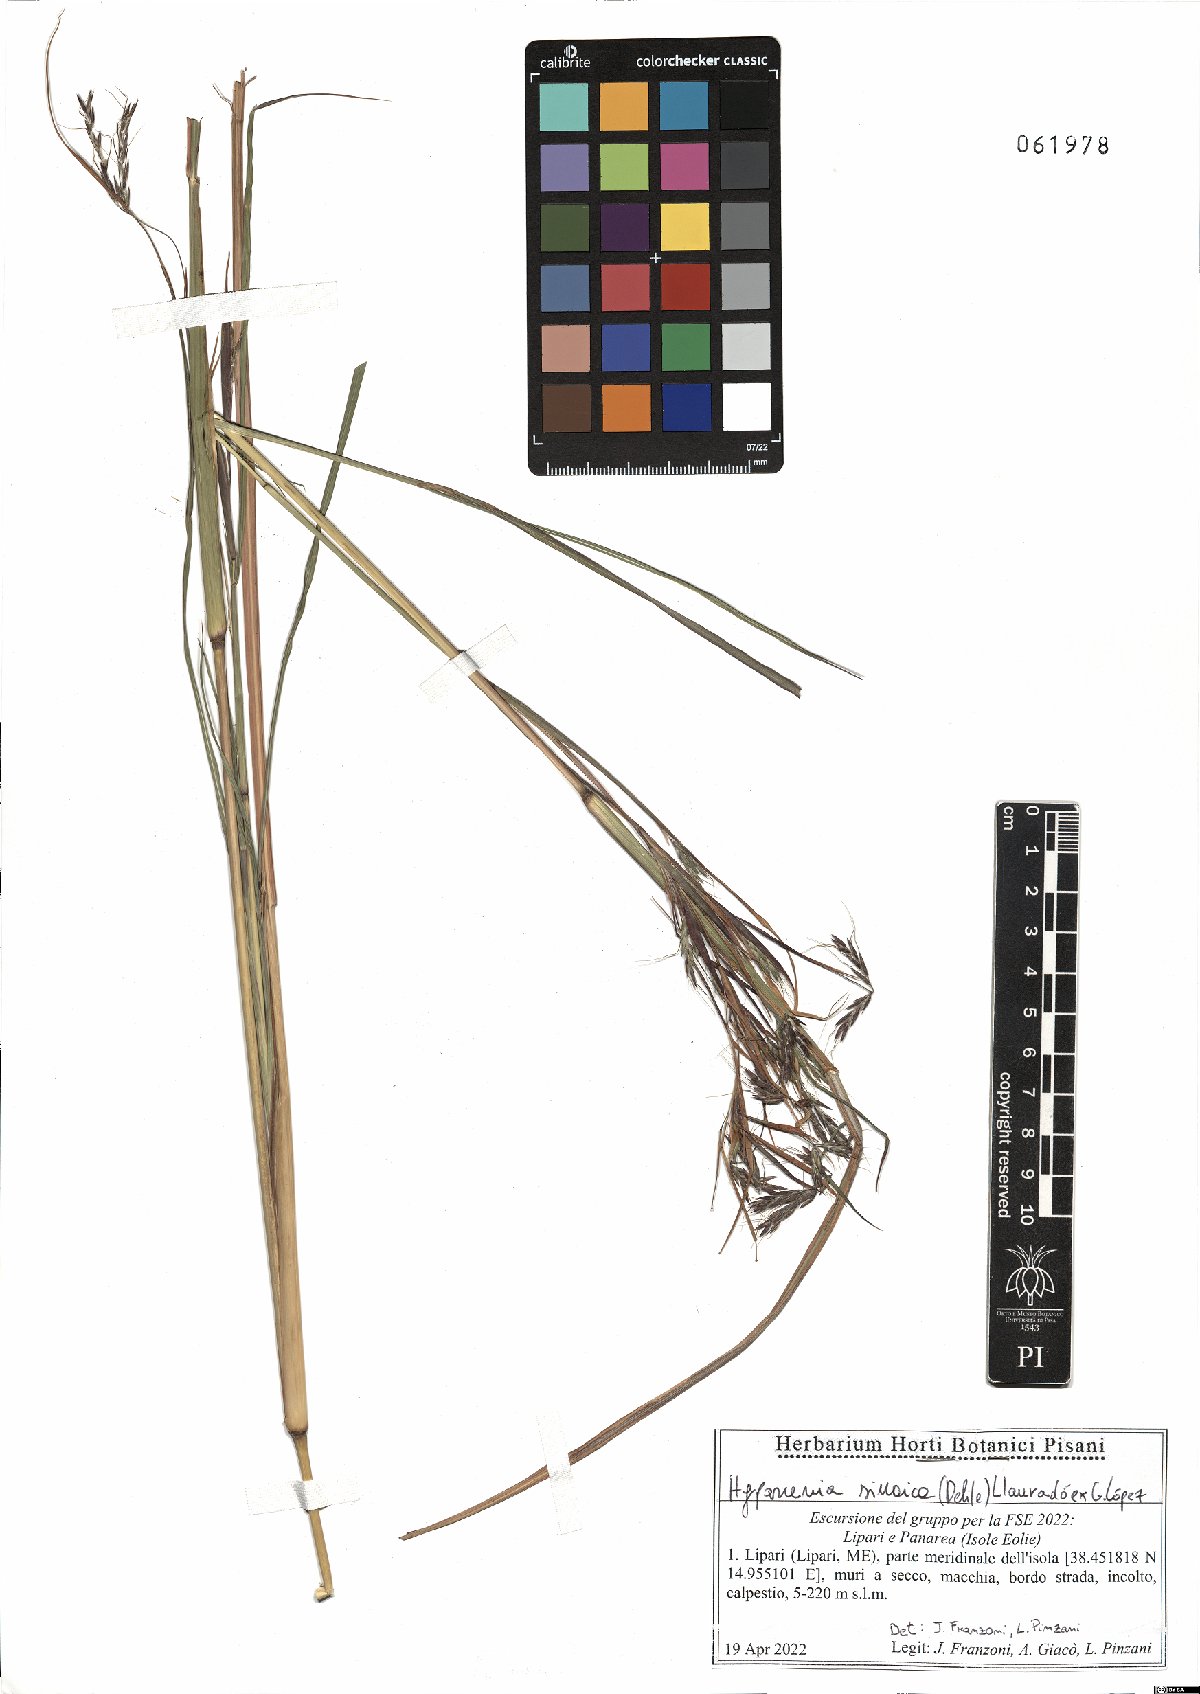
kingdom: Plantae
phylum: Tracheophyta
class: Liliopsida
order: Poales
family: Poaceae
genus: Hyparrhenia
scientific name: Hyparrhenia hirta
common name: Thatching grass
